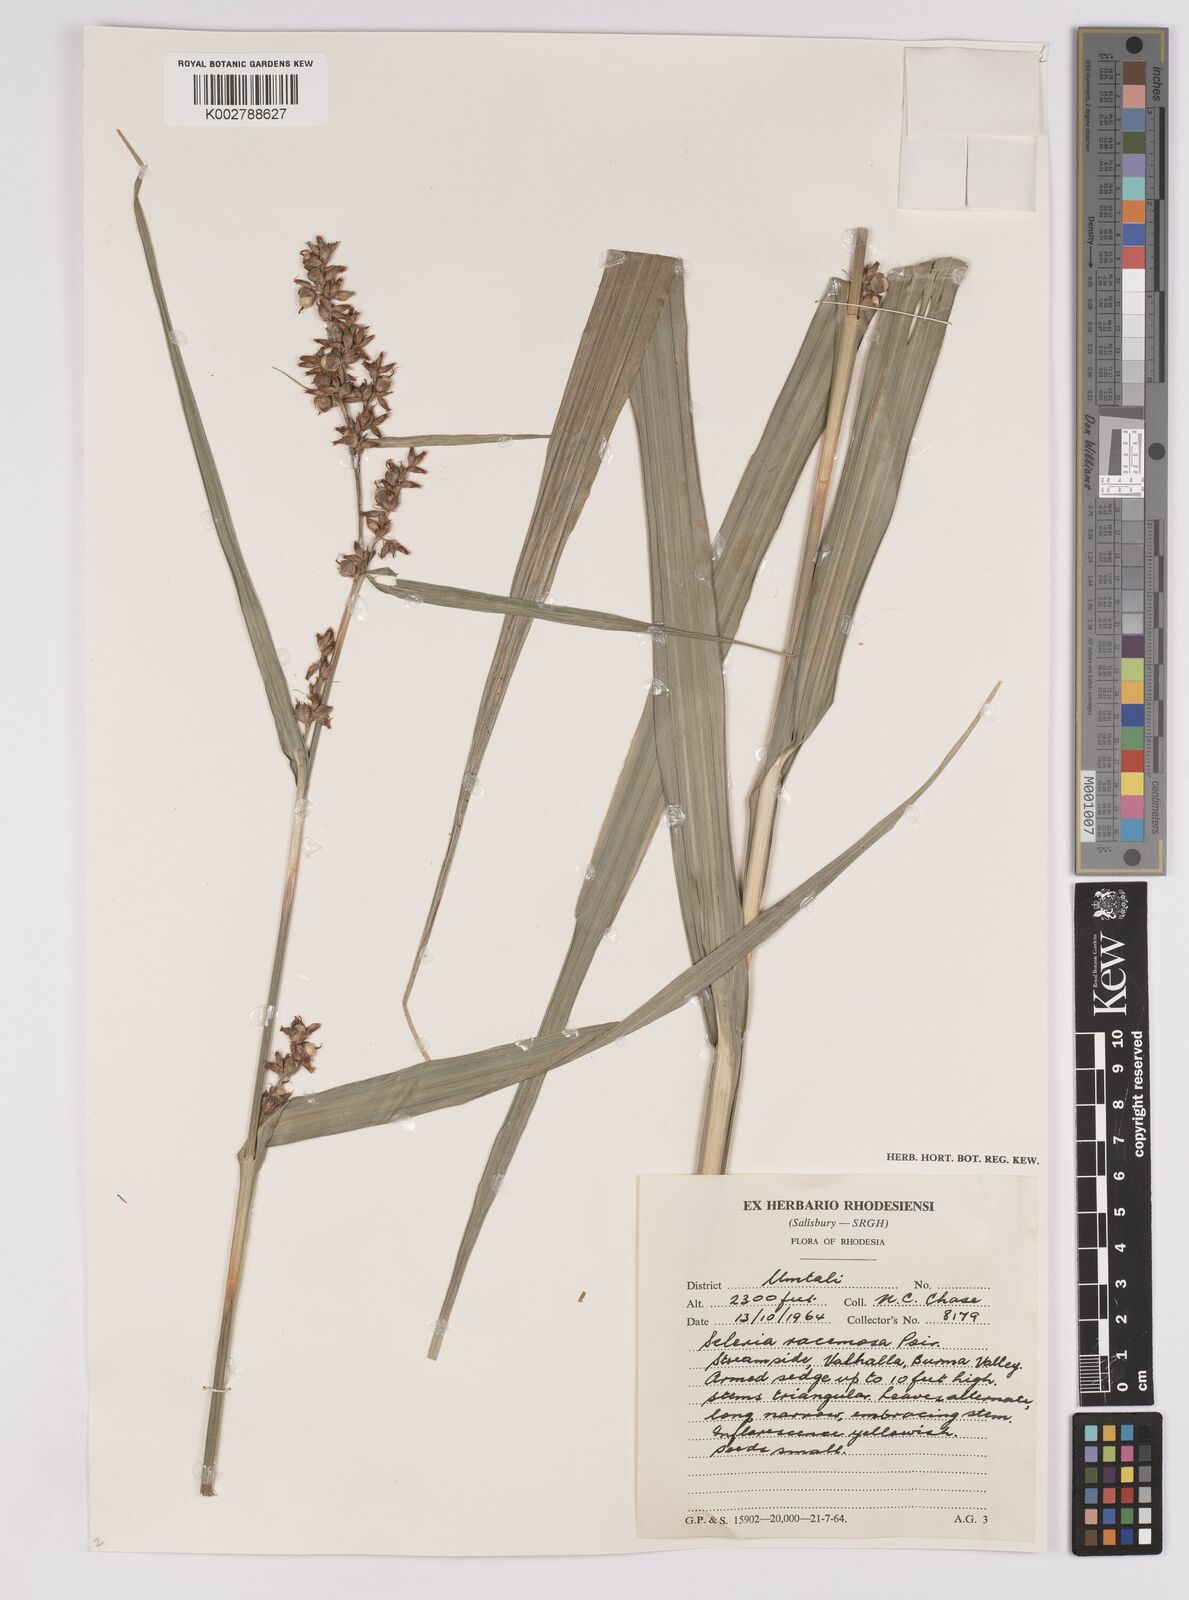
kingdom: Plantae
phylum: Tracheophyta
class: Liliopsida
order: Poales
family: Cyperaceae
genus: Scleria
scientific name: Scleria racemosa
